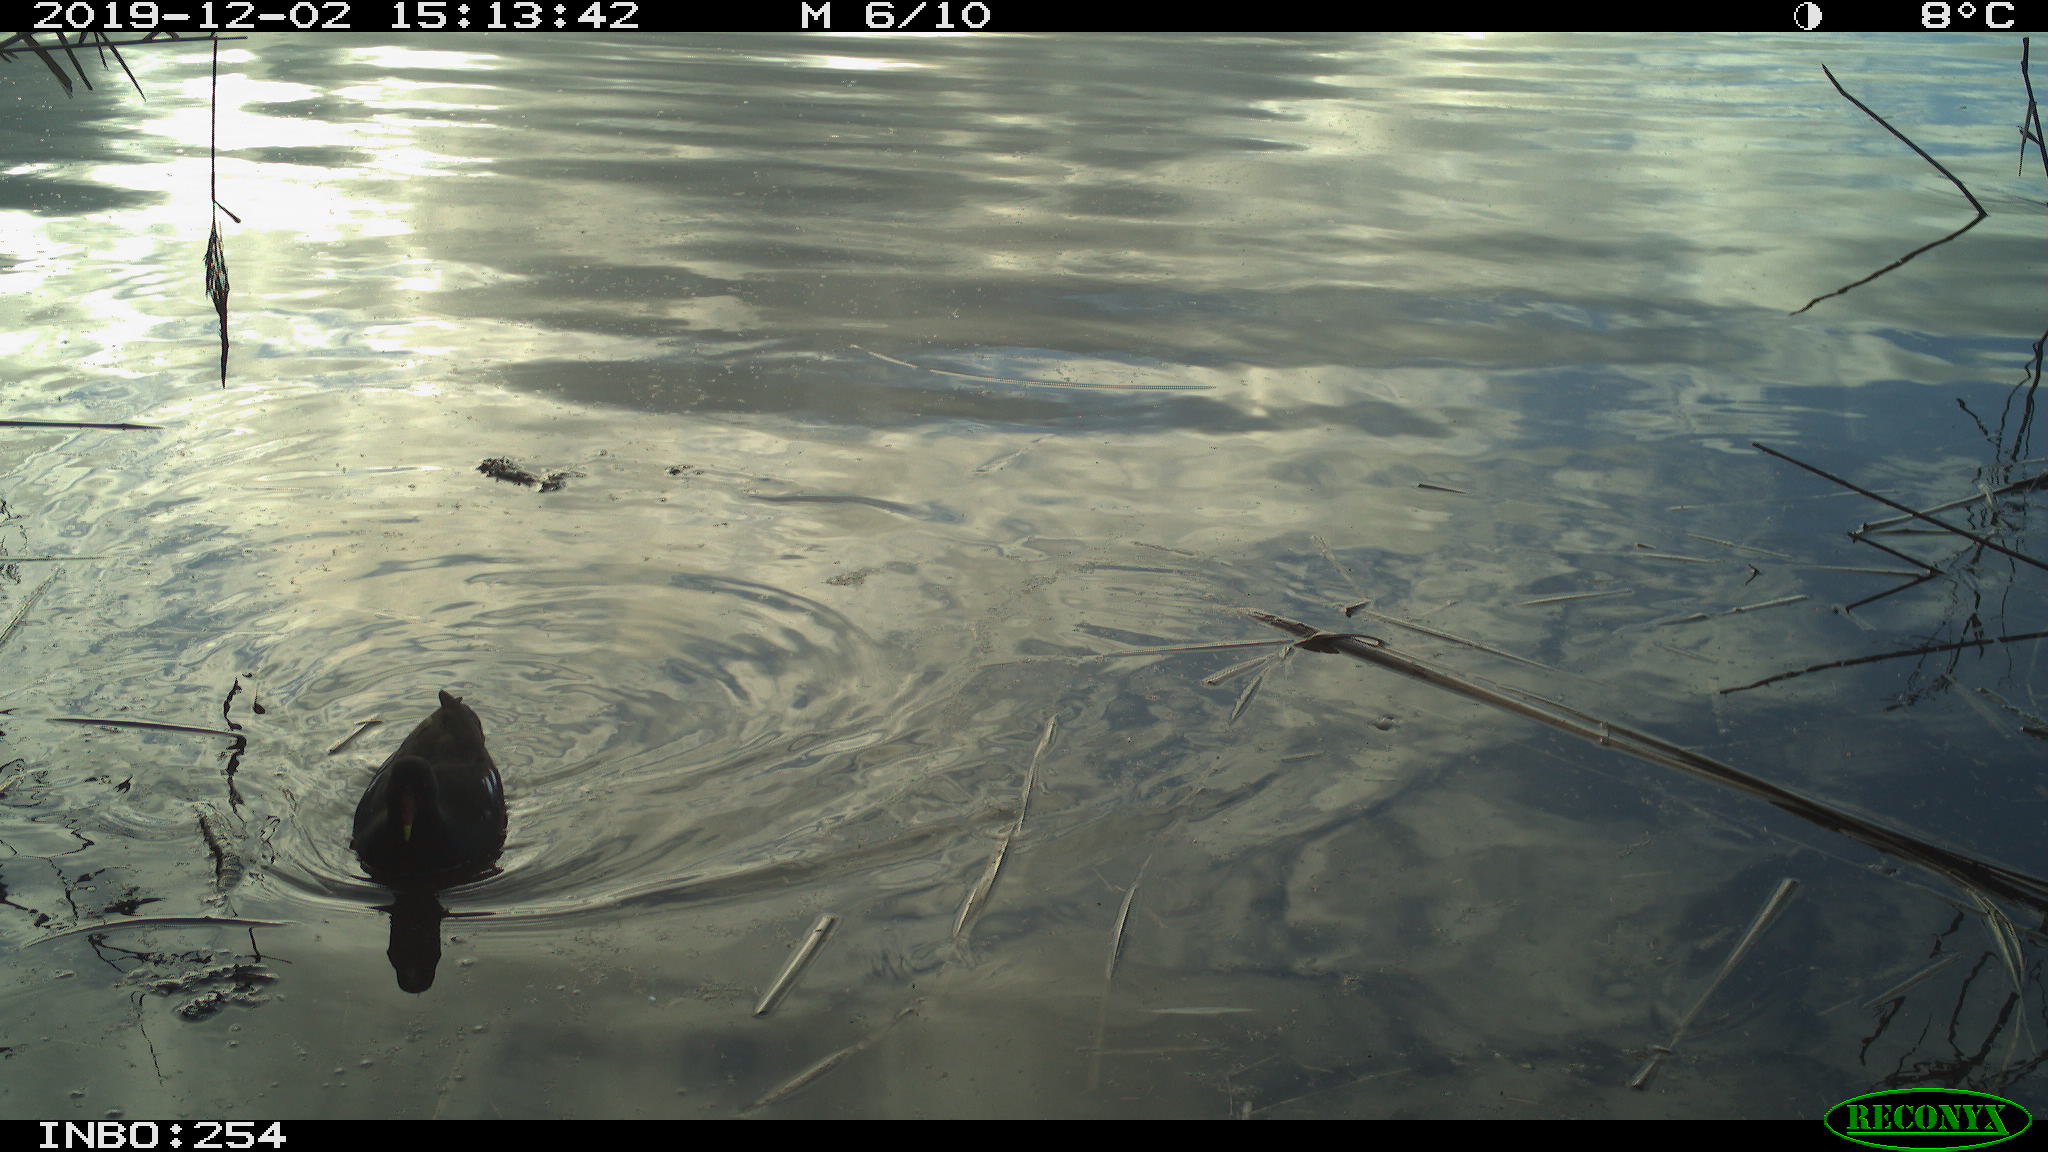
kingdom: Animalia
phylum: Chordata
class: Aves
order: Gruiformes
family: Rallidae
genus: Gallinula
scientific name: Gallinula chloropus
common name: Common moorhen
